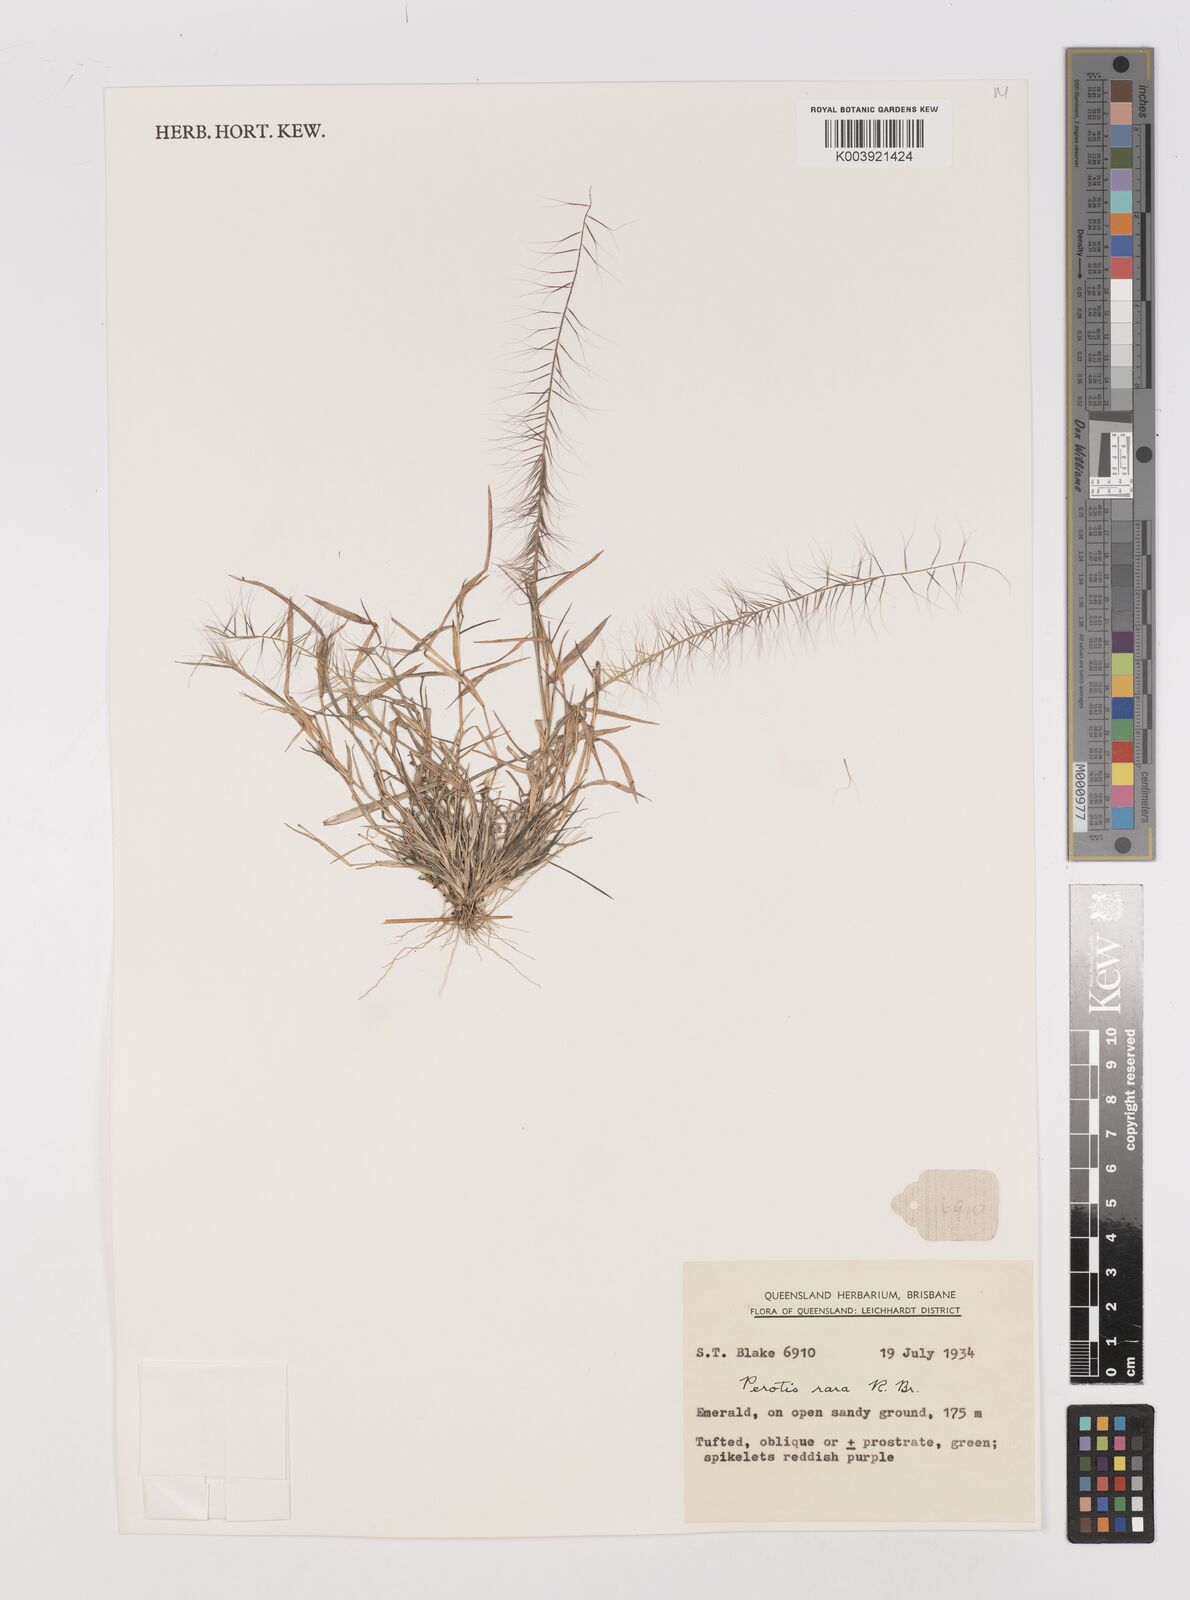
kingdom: Plantae
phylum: Tracheophyta
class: Liliopsida
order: Poales
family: Poaceae
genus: Perotis
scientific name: Perotis rara
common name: Comet grass
